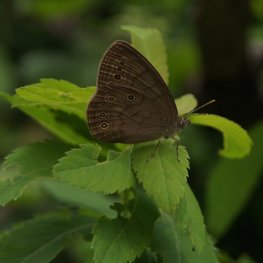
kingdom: Animalia
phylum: Arthropoda
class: Insecta
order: Lepidoptera
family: Nymphalidae
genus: Lethe
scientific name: Lethe eurydice
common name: Eyed Brown
